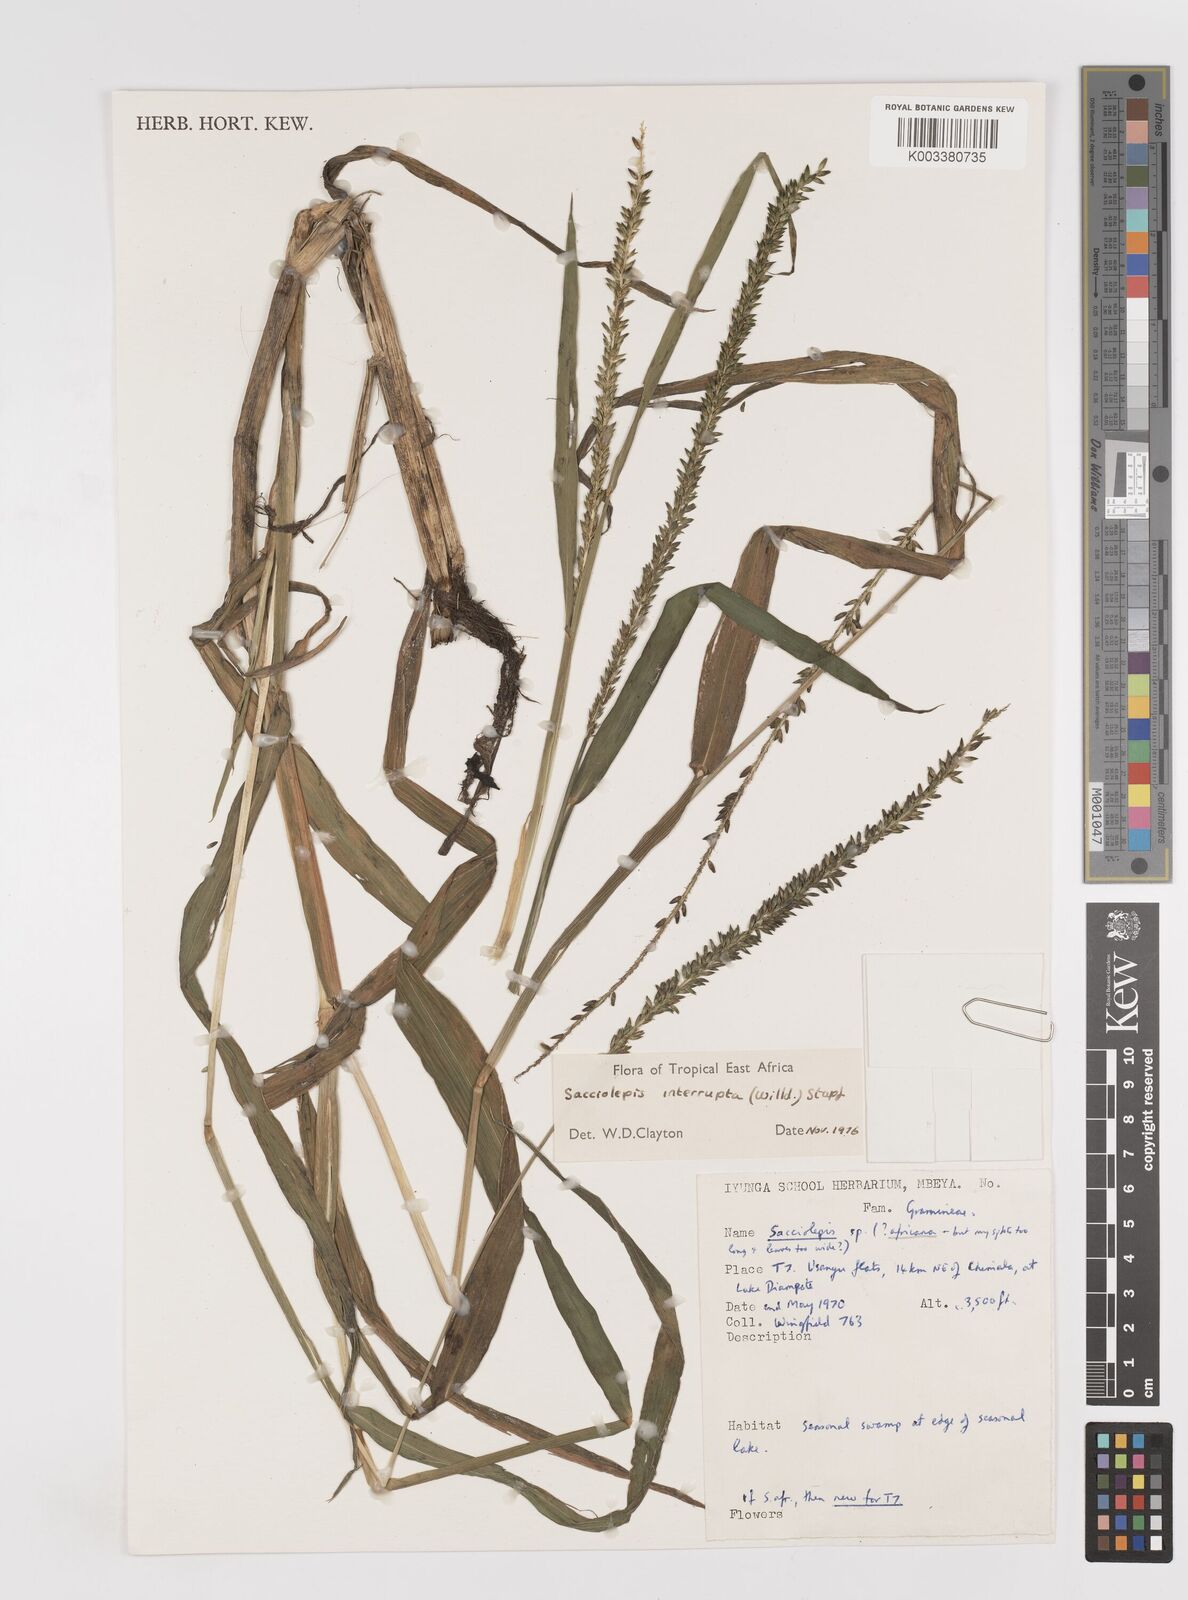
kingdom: Plantae
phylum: Tracheophyta
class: Liliopsida
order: Poales
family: Poaceae
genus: Sacciolepis
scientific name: Sacciolepis interrupta
